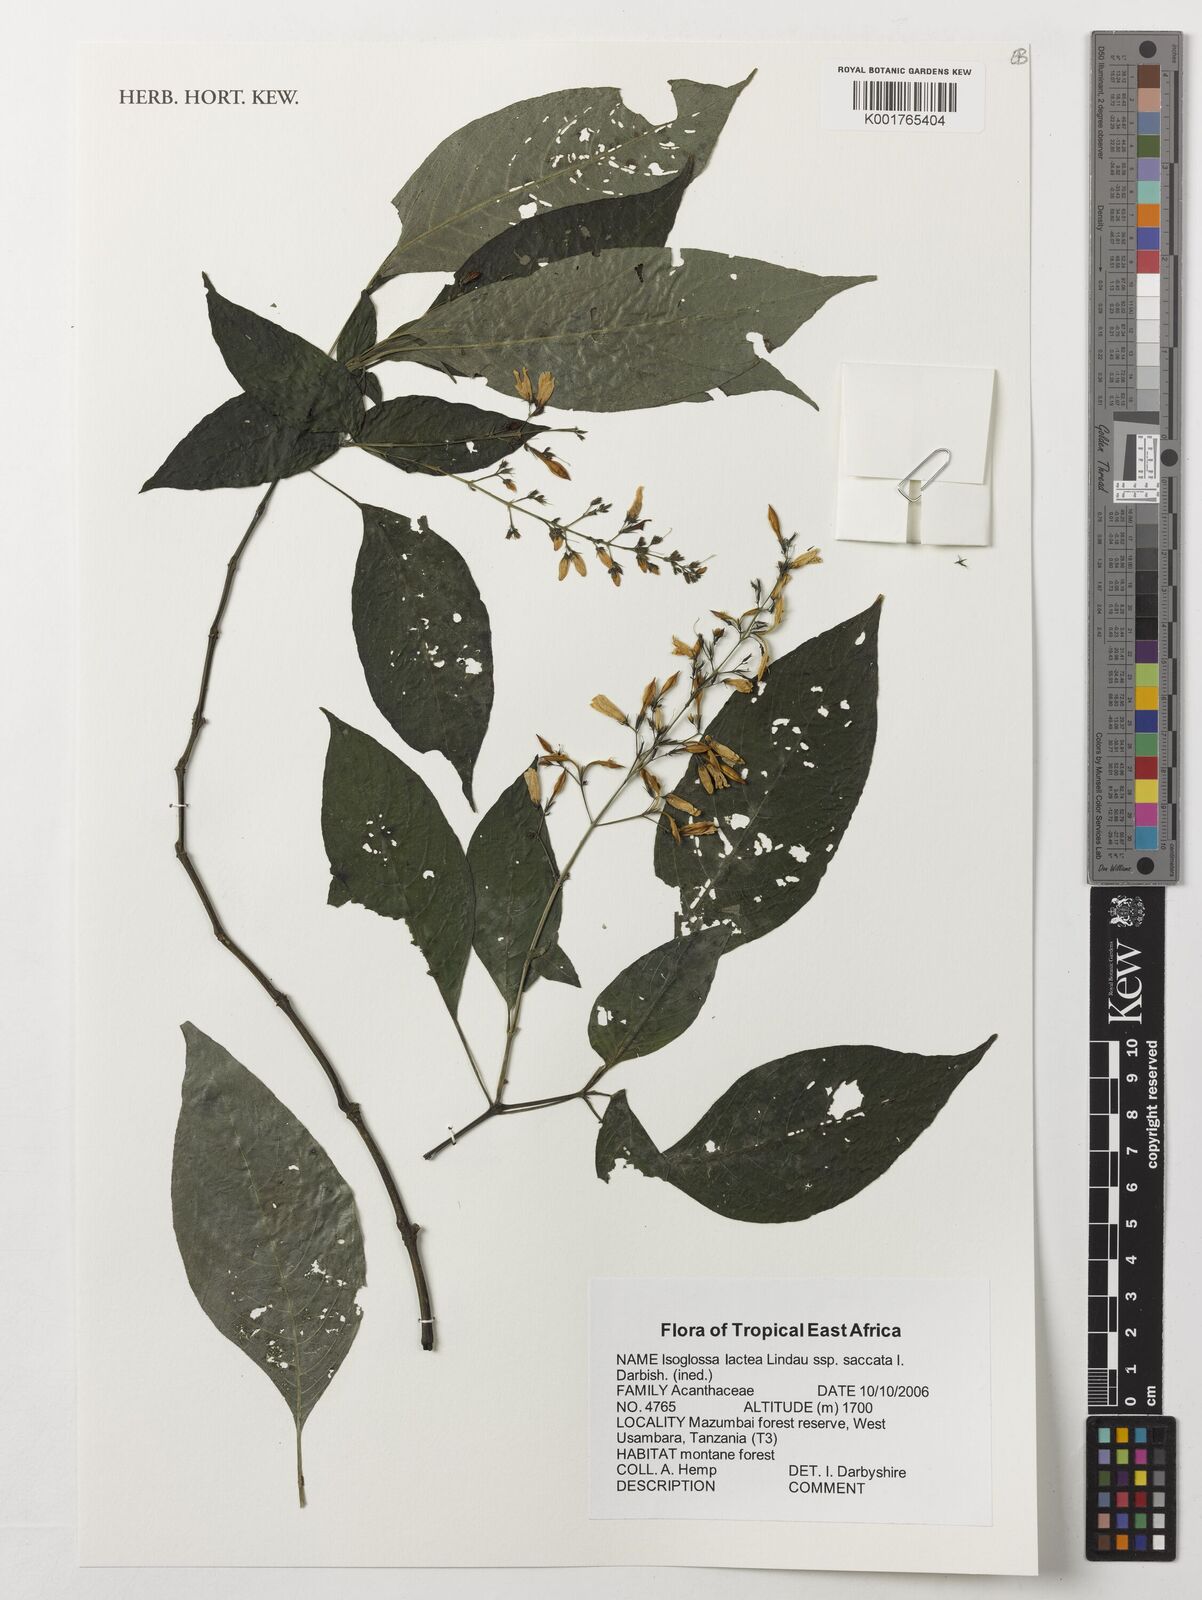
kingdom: Plantae
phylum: Tracheophyta
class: Magnoliopsida
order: Lamiales
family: Acanthaceae
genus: Isoglossa
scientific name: Isoglossa lactea
